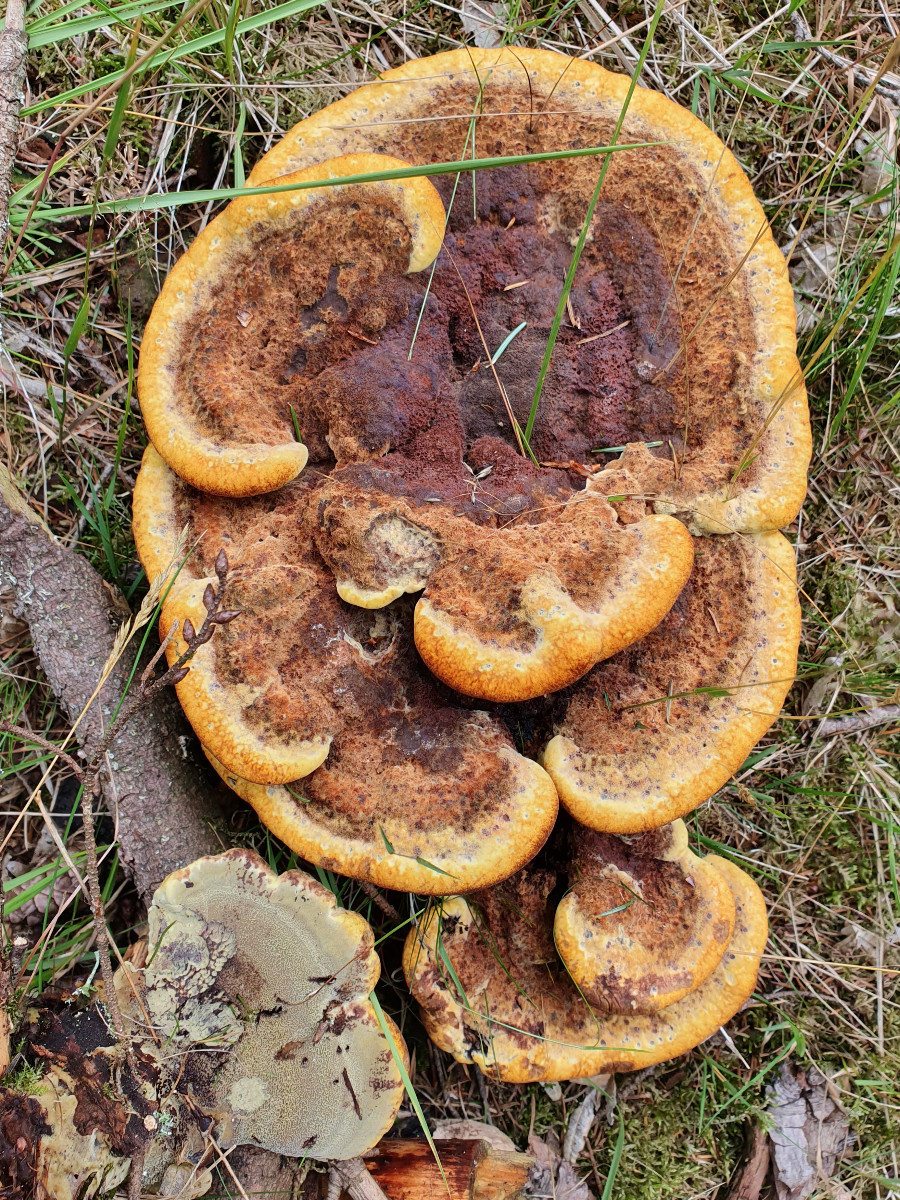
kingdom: Fungi
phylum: Basidiomycota
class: Agaricomycetes
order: Polyporales
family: Laetiporaceae
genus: Phaeolus
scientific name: Phaeolus schweinitzii
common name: brunporesvamp
